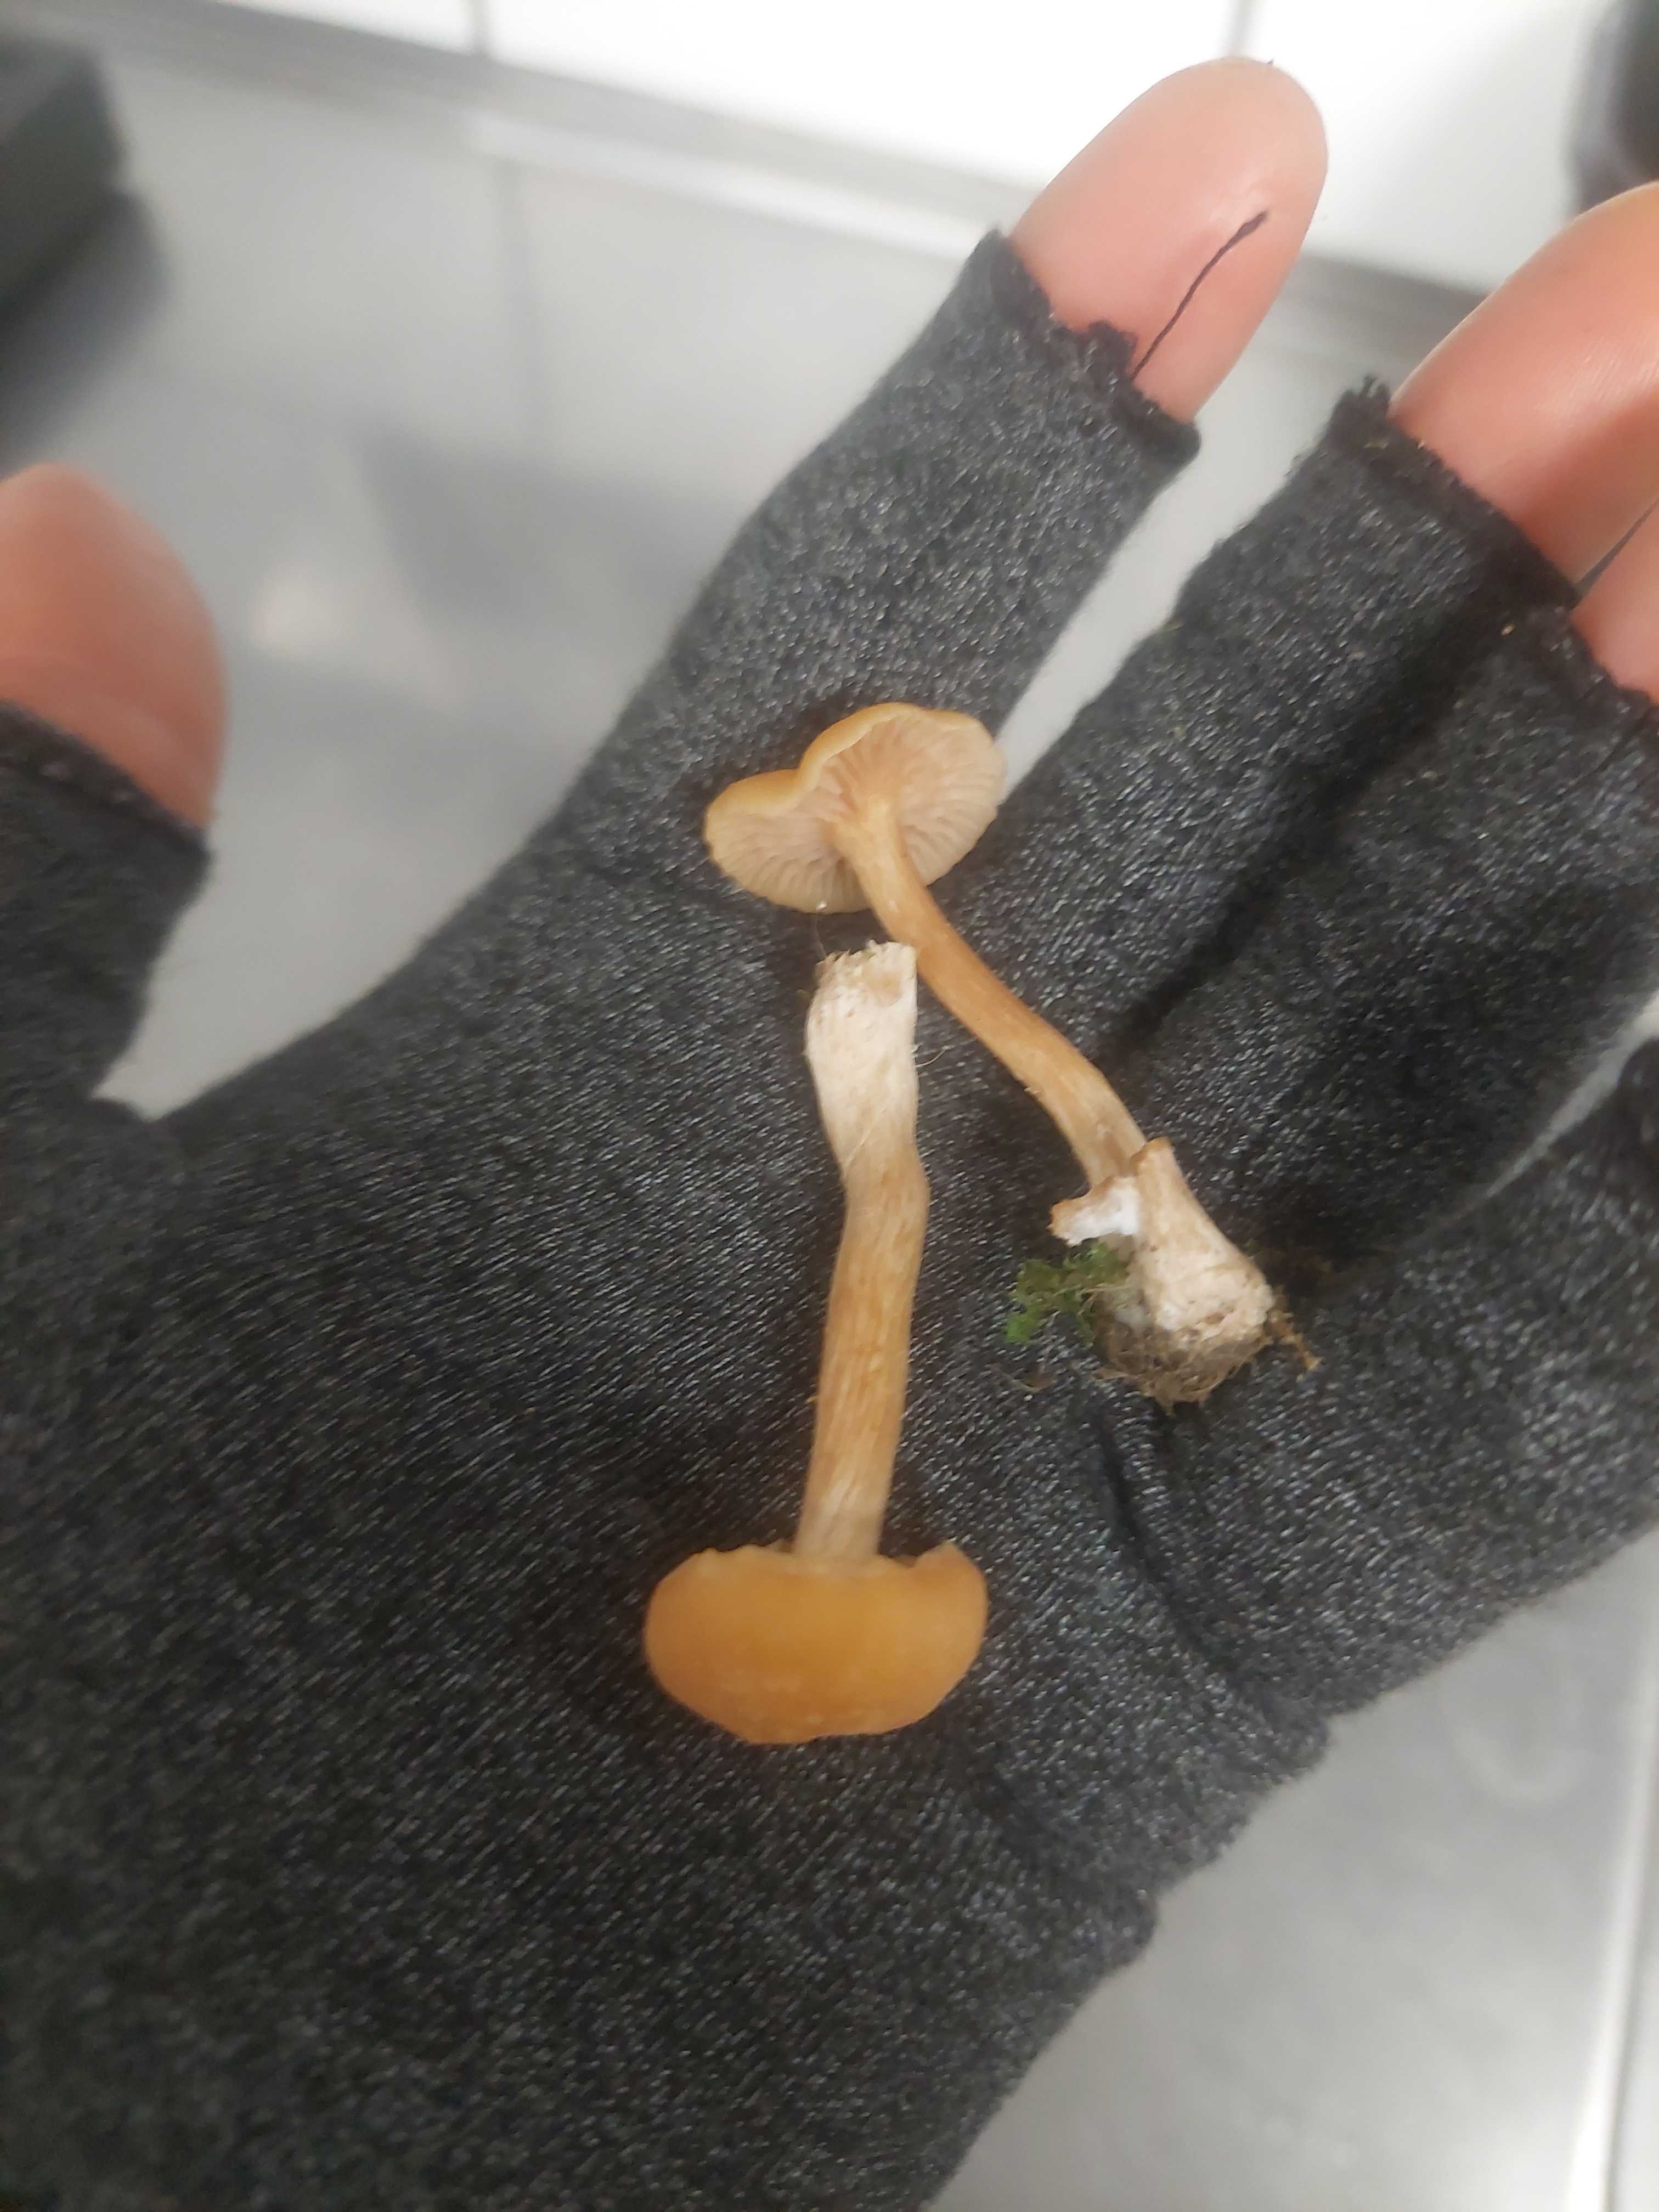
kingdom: Fungi
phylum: Basidiomycota
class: Agaricomycetes
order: Agaricales
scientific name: Agaricales
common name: champignonordenen
